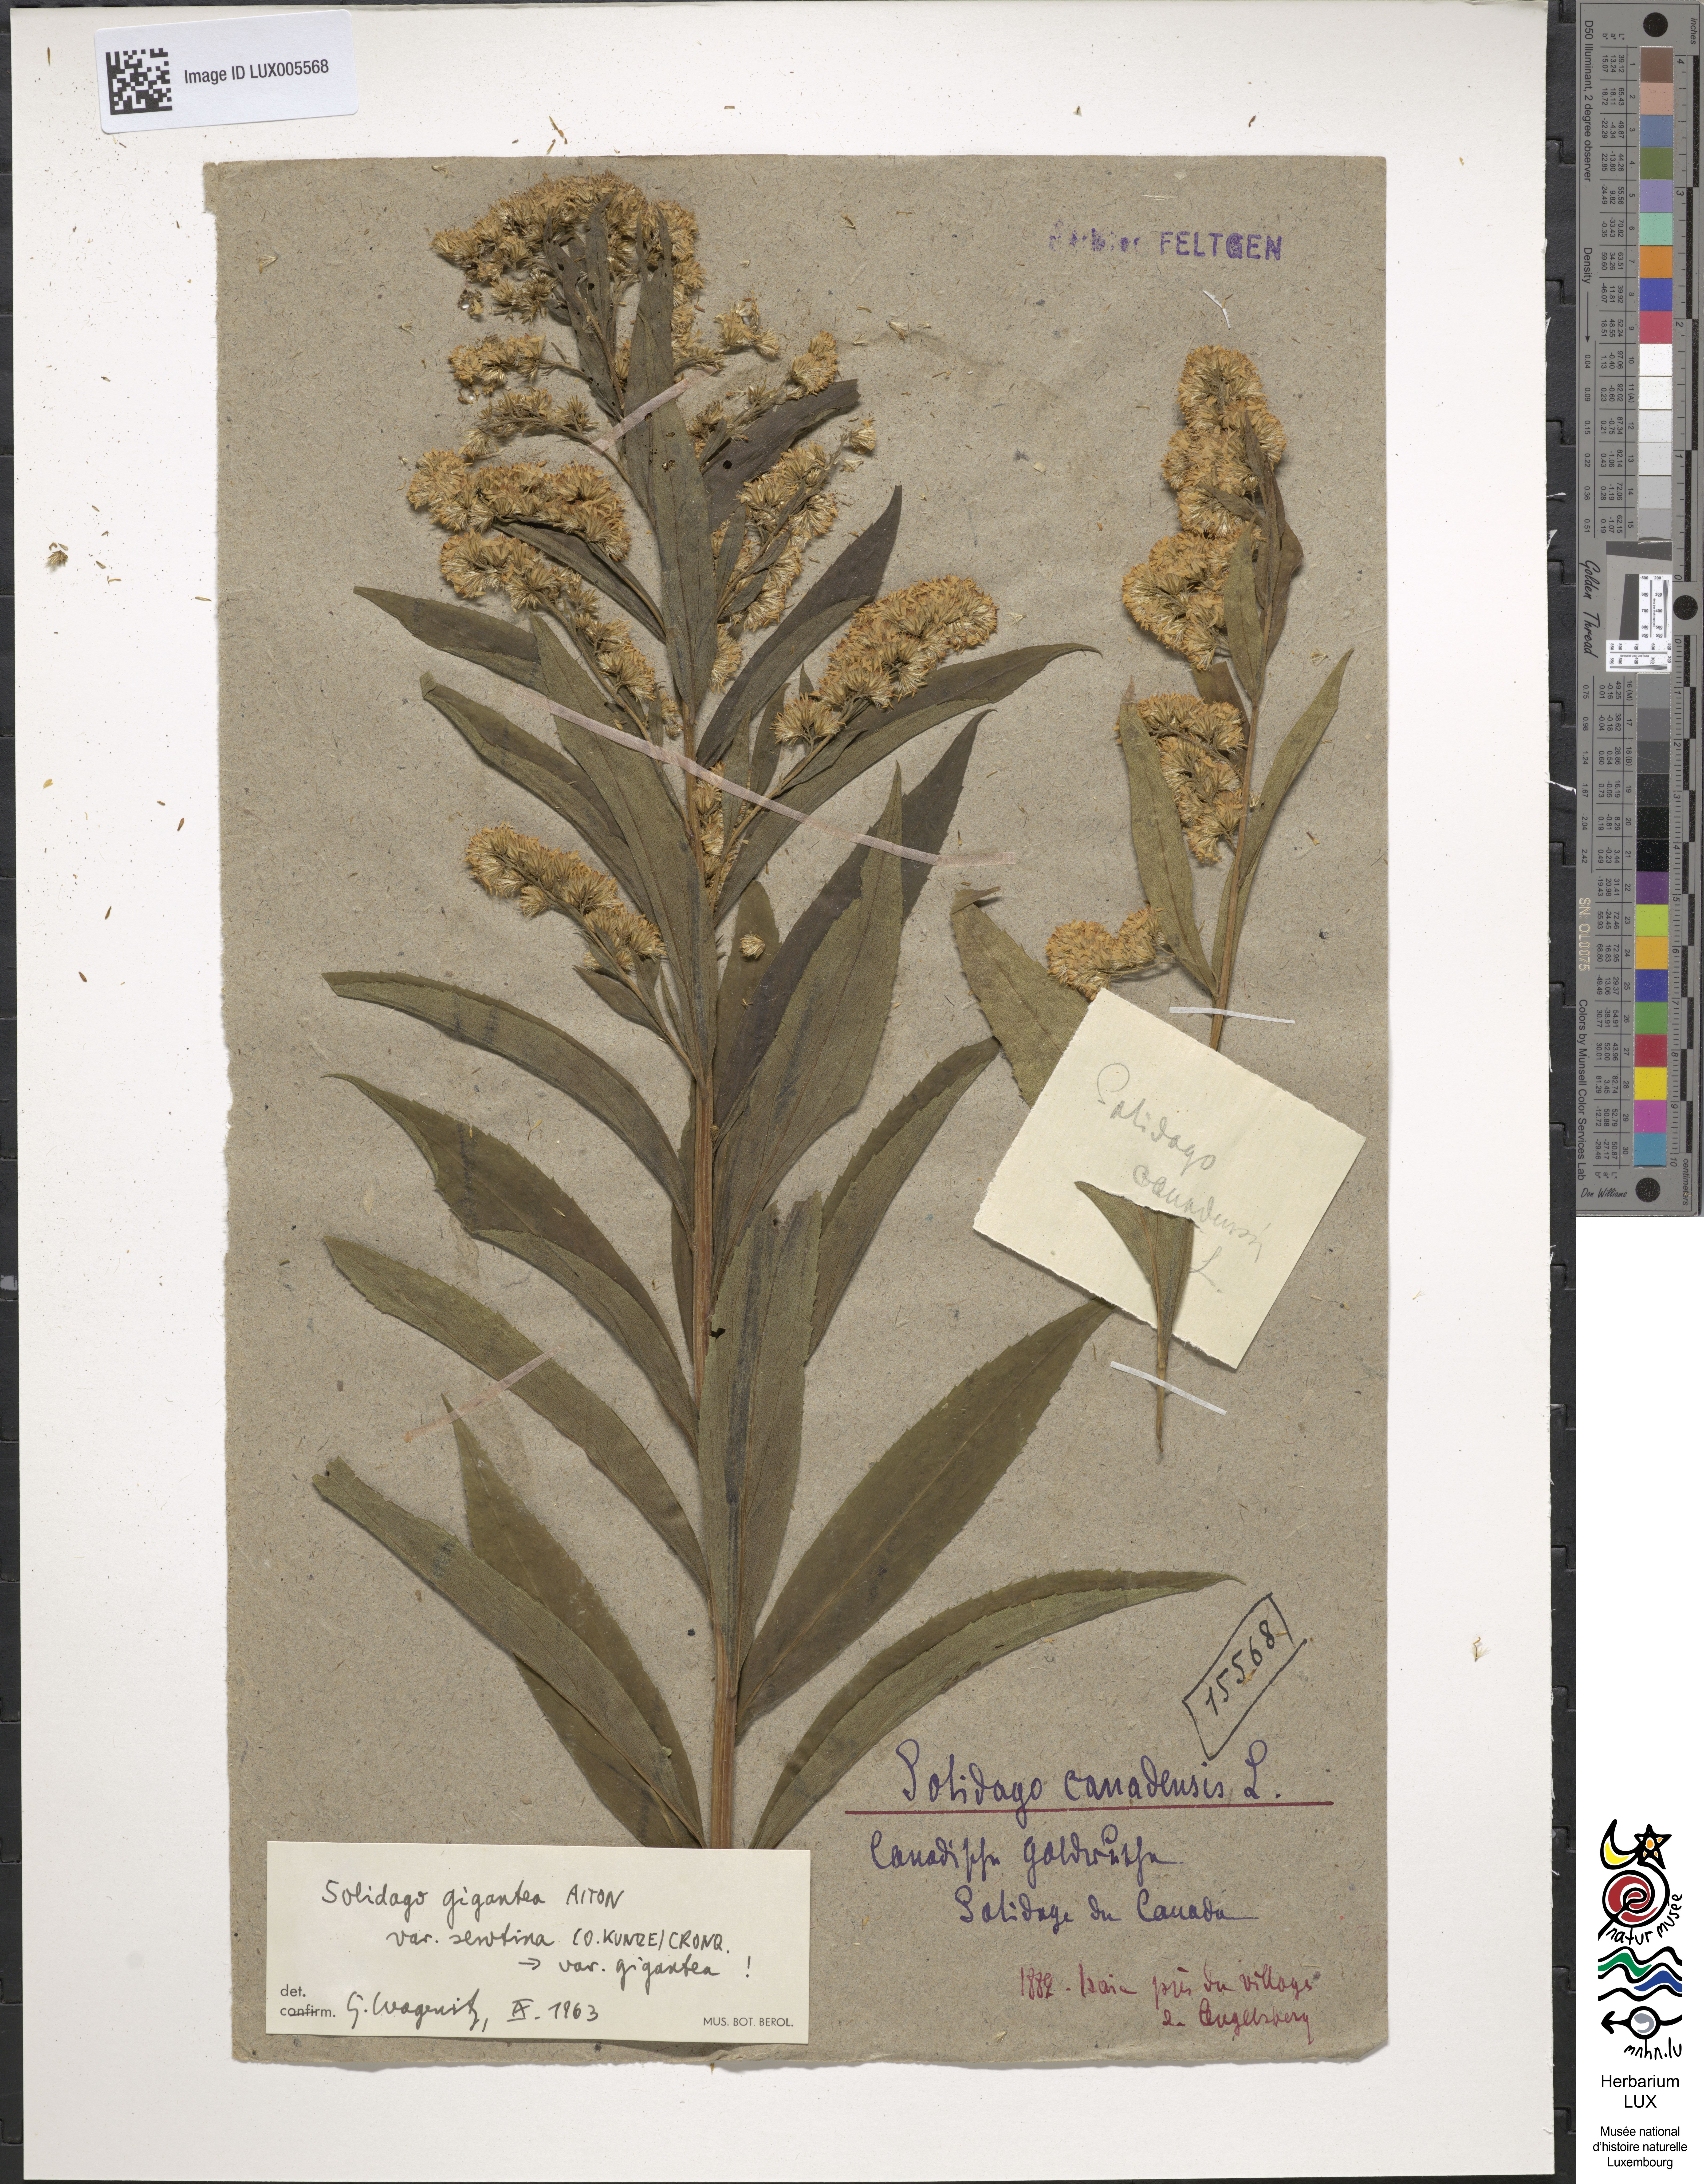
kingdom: Plantae
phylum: Tracheophyta
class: Magnoliopsida
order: Asterales
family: Asteraceae
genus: Solidago
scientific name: Solidago gigantea
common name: Giant goldenrod
